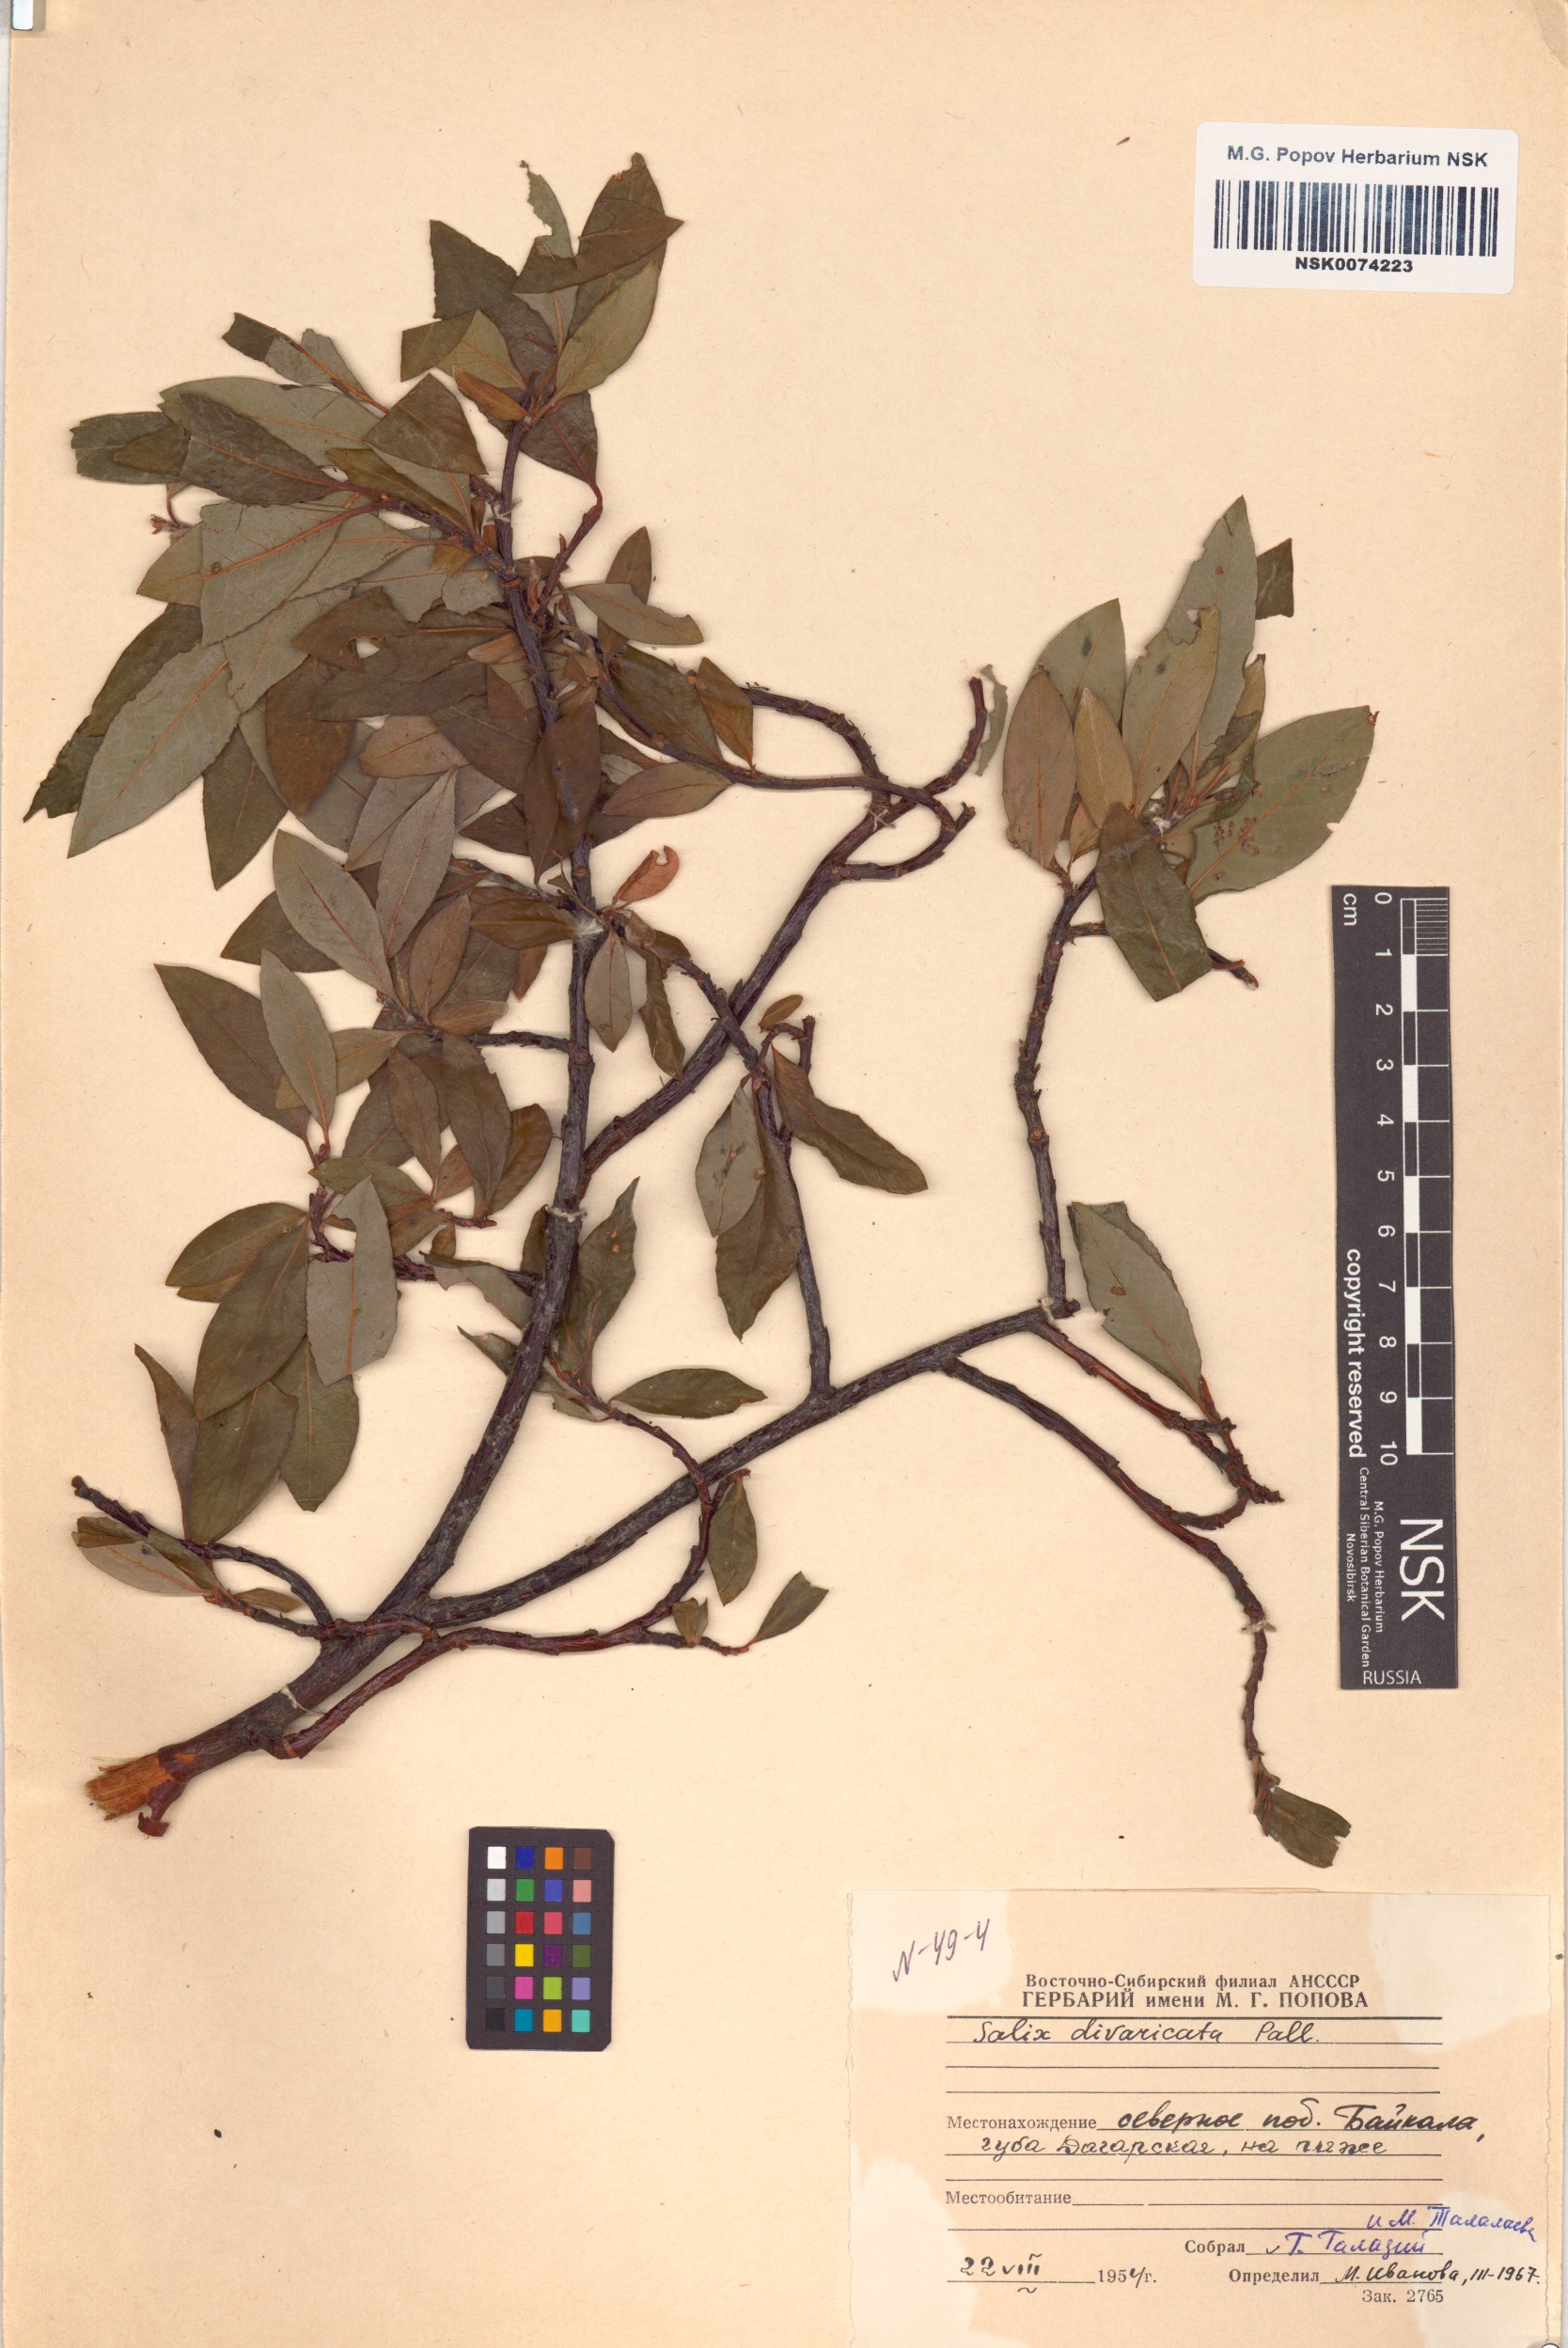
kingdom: Plantae
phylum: Tracheophyta
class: Magnoliopsida
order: Malpighiales
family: Salicaceae
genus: Salix
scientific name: Salix divaricata
